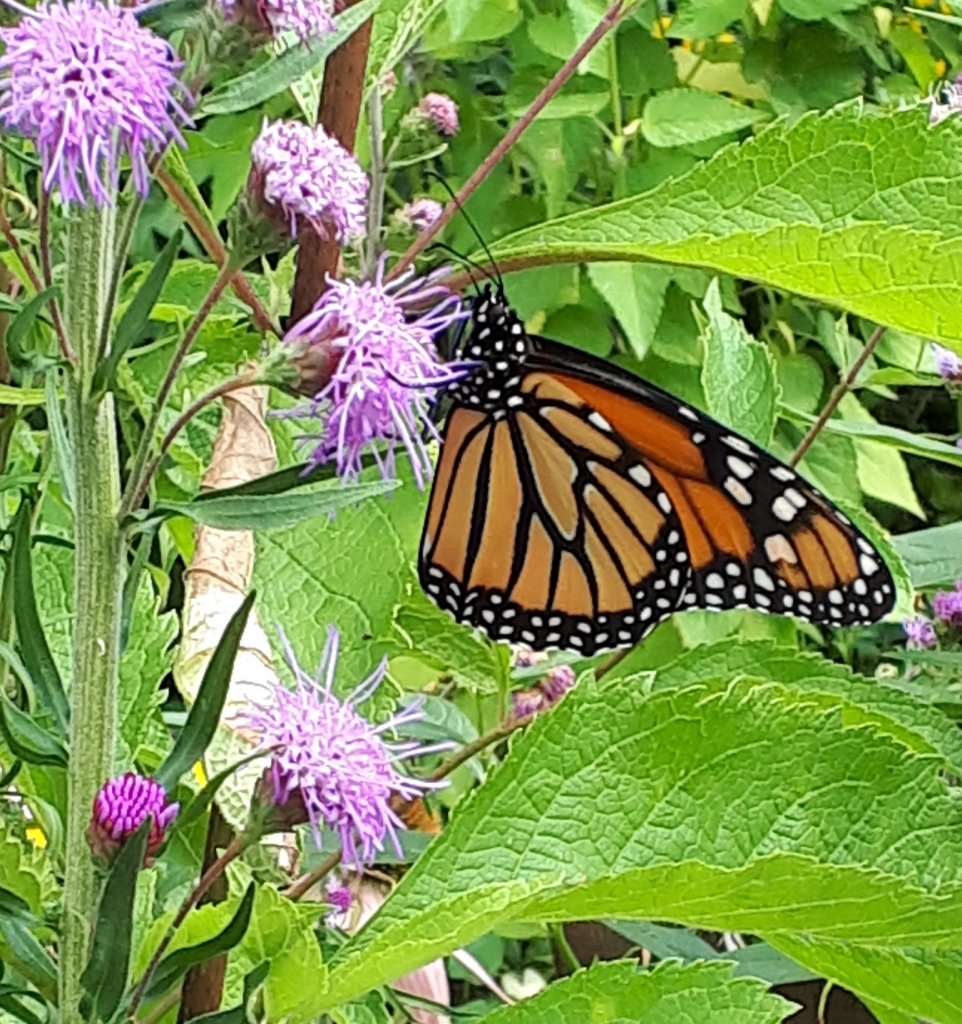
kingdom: Animalia
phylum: Arthropoda
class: Insecta
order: Lepidoptera
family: Nymphalidae
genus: Danaus
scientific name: Danaus plexippus
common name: Monarch
